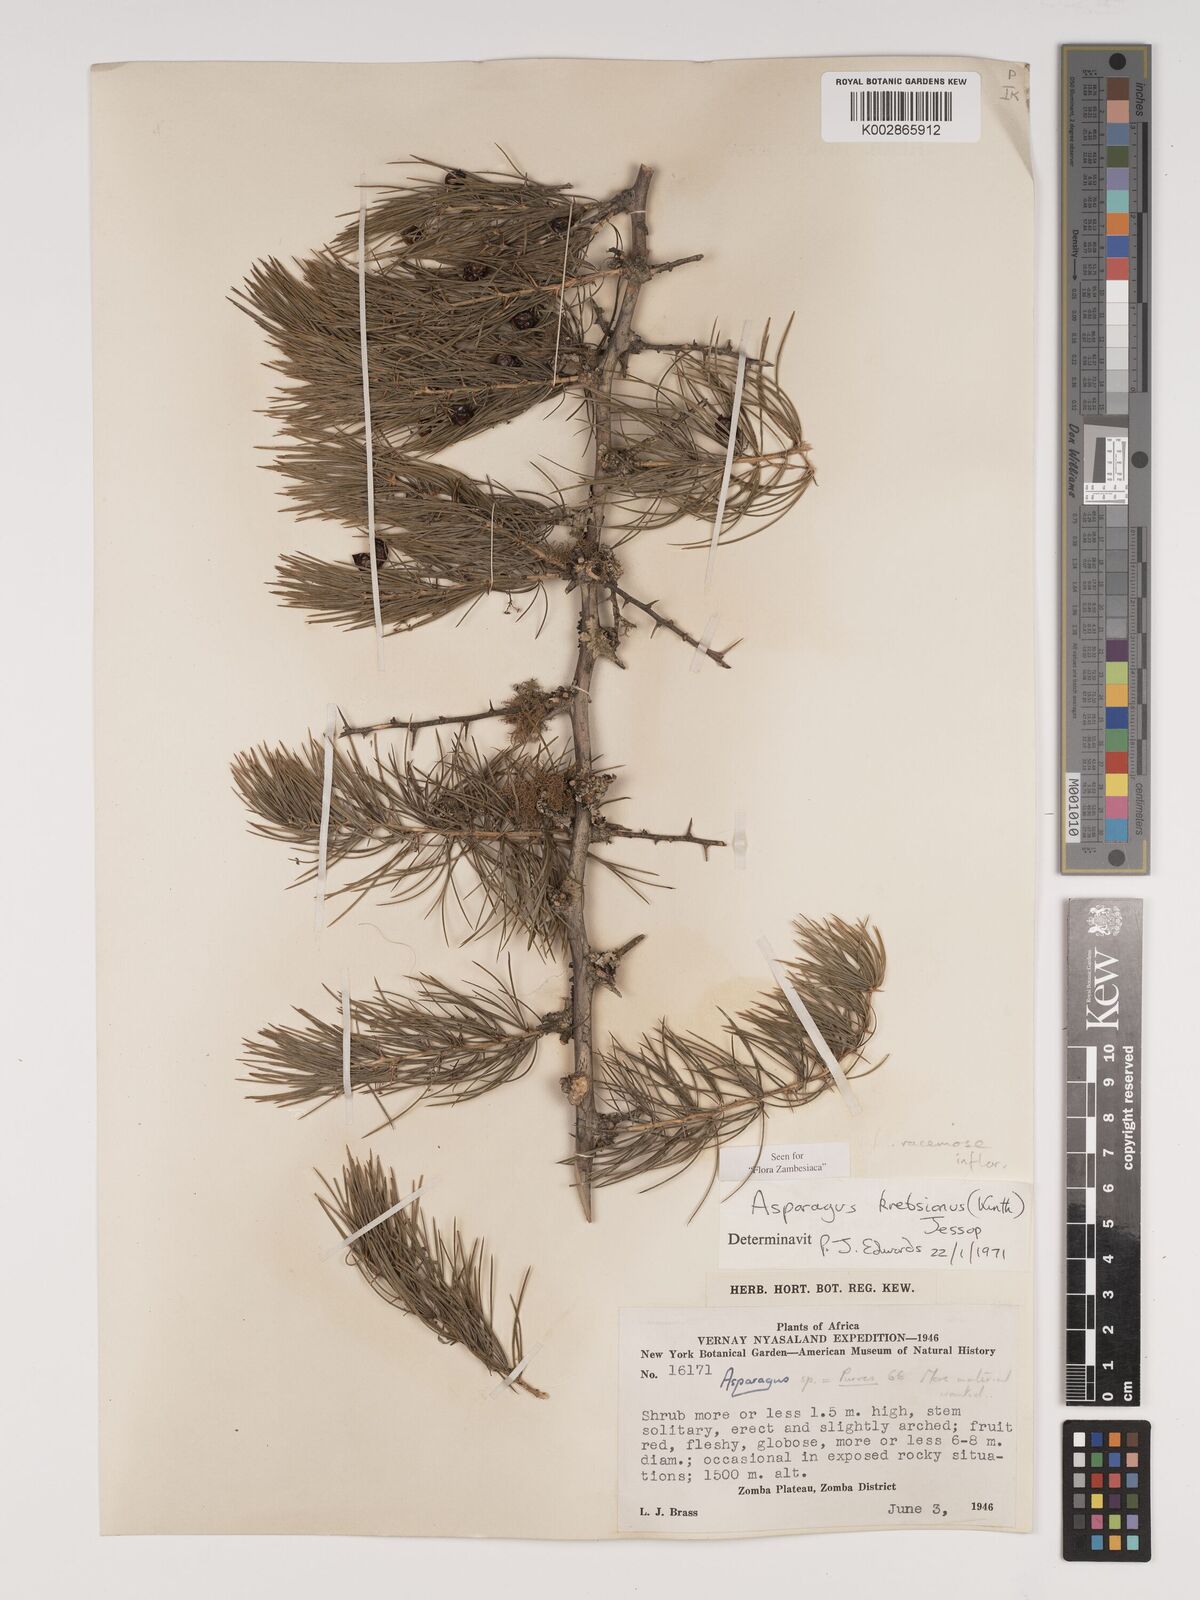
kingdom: Plantae
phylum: Tracheophyta
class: Liliopsida
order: Asparagales
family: Asparagaceae
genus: Asparagus
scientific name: Asparagus krebsianus
